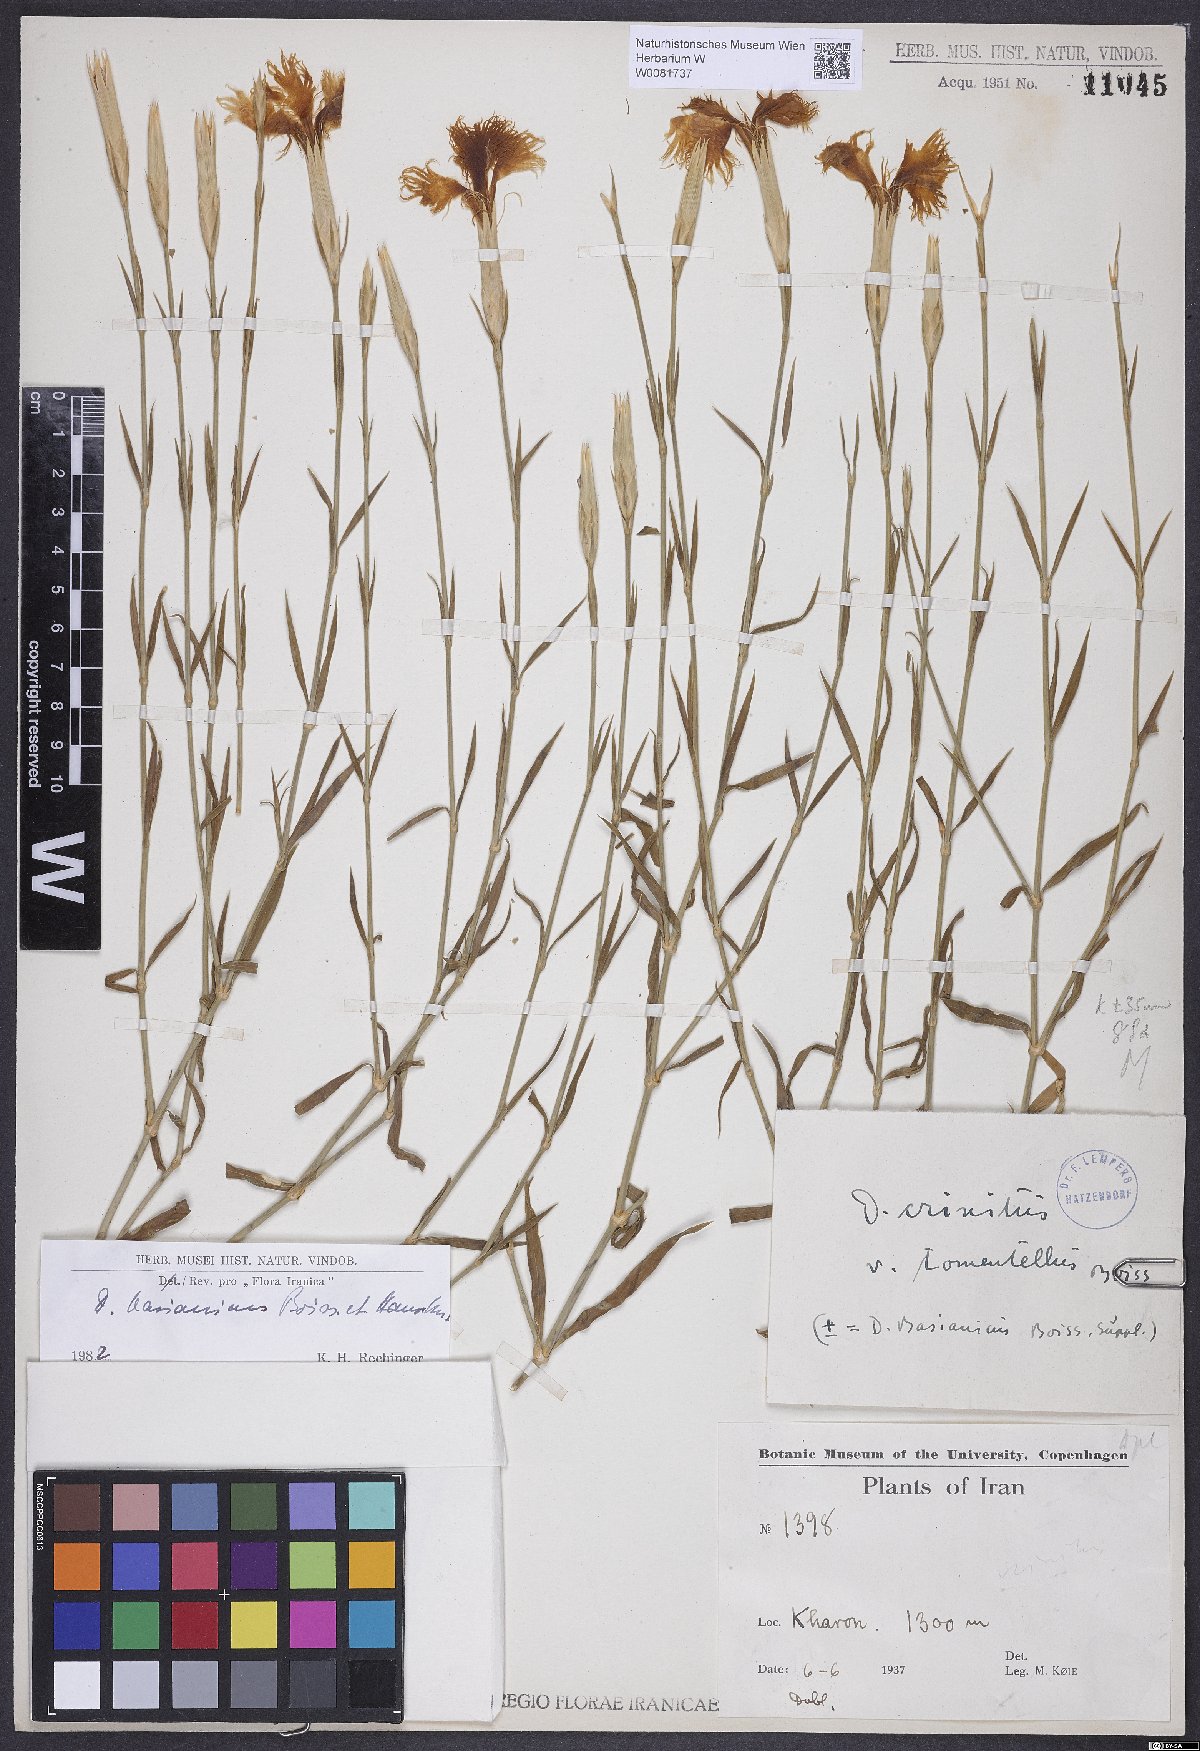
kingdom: Plantae
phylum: Tracheophyta
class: Magnoliopsida
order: Caryophyllales
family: Caryophyllaceae
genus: Dianthus
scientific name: Dianthus basianicus
